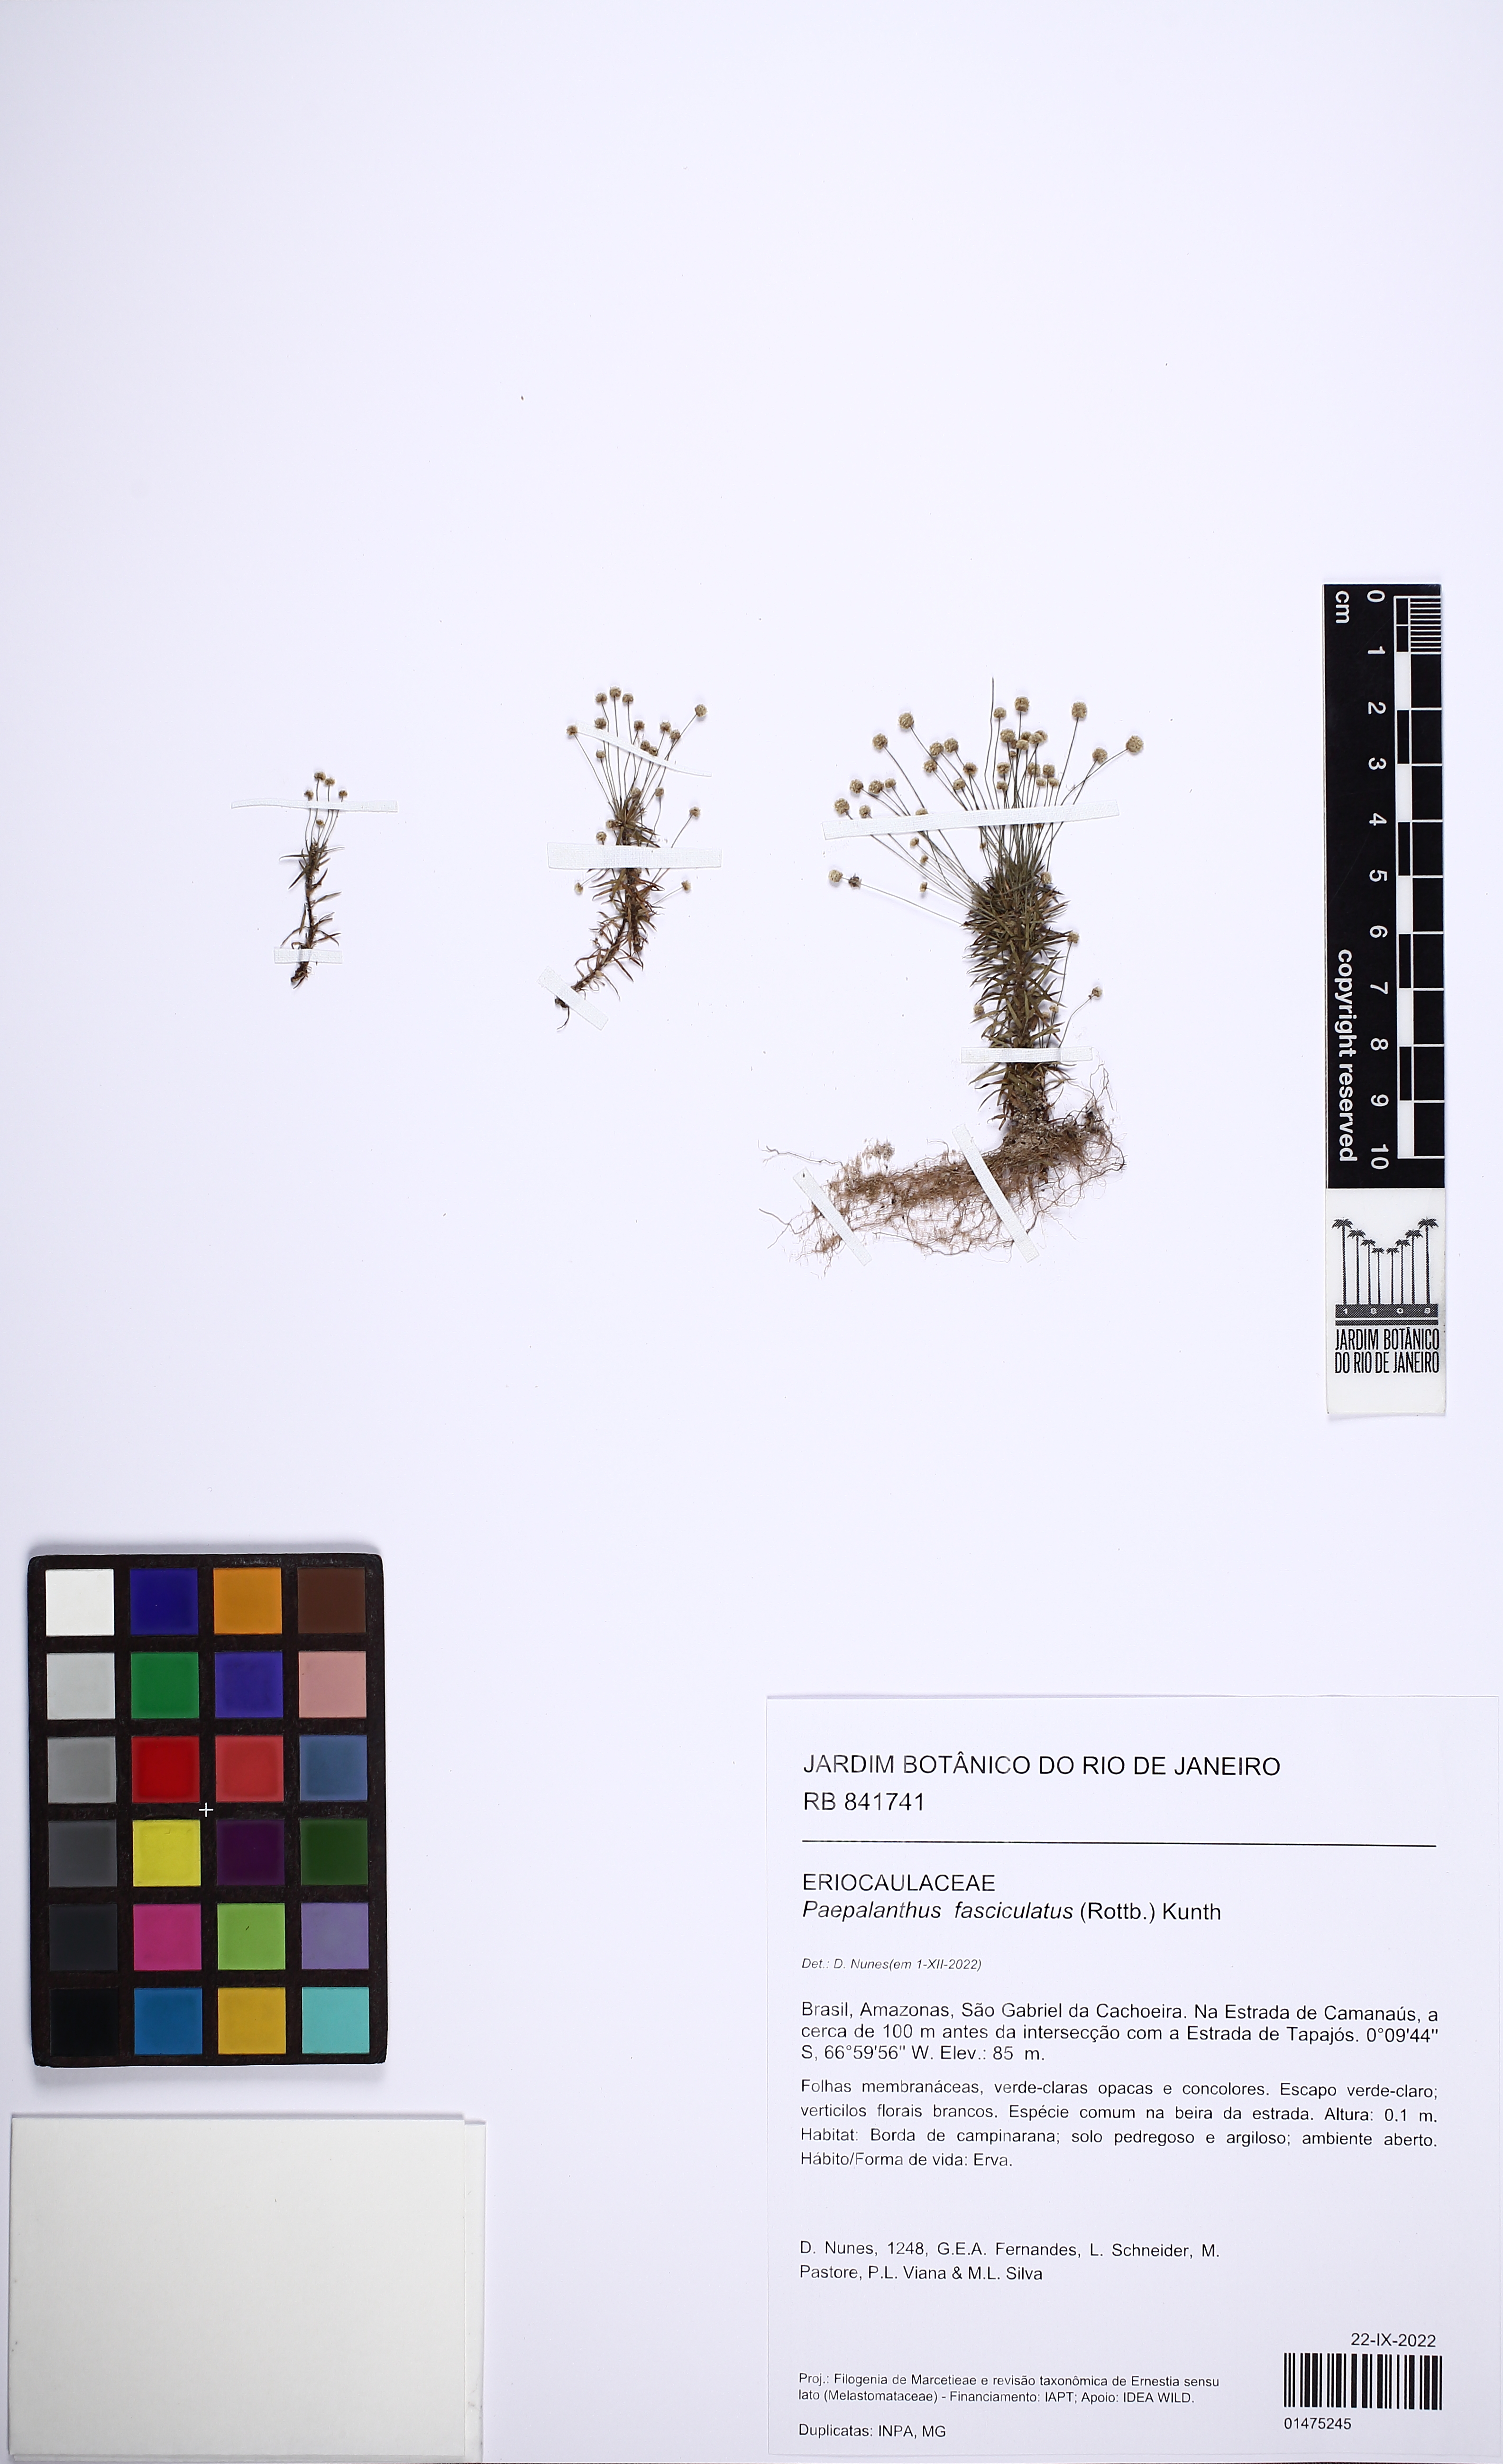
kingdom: Plantae
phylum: Tracheophyta
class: Liliopsida
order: Poales
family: Eriocaulaceae
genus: Paepalanthus
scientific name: Paepalanthus fasciculatus
